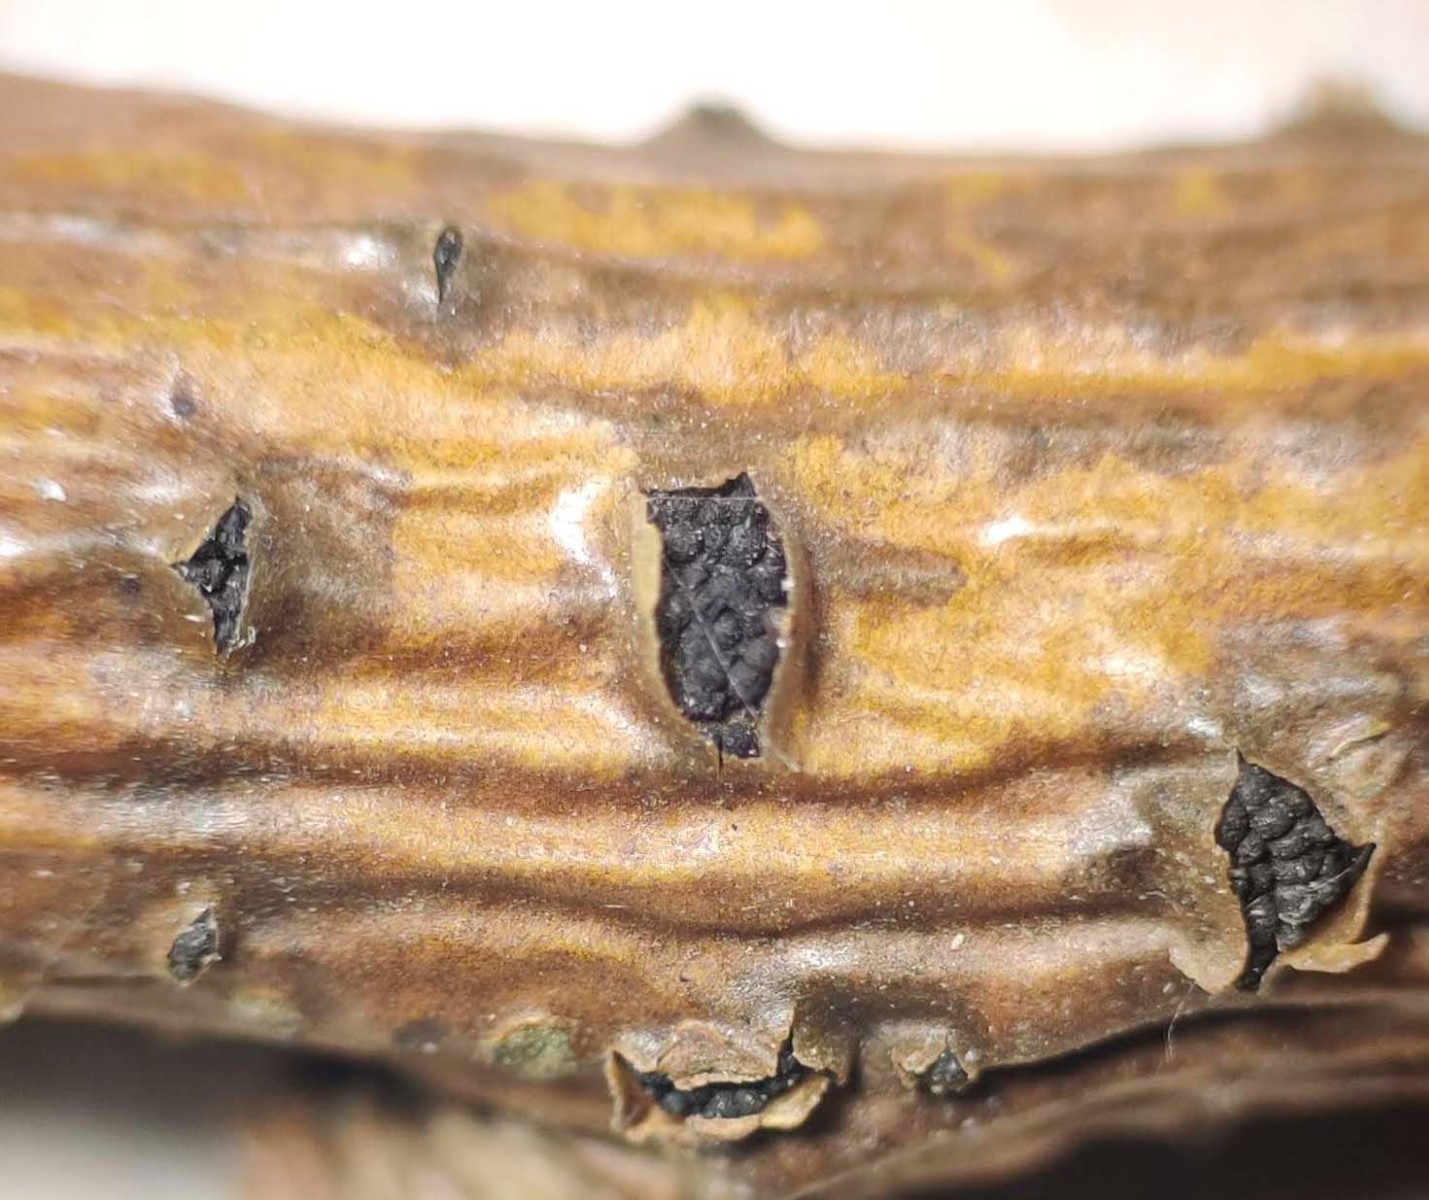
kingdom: Fungi
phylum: Ascomycota
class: Dothideomycetes
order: Pleosporales
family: Camarosporidiellaceae
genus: Camarosporidiella
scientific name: Camarosporidiella laburni
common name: guldregn-tykbær
